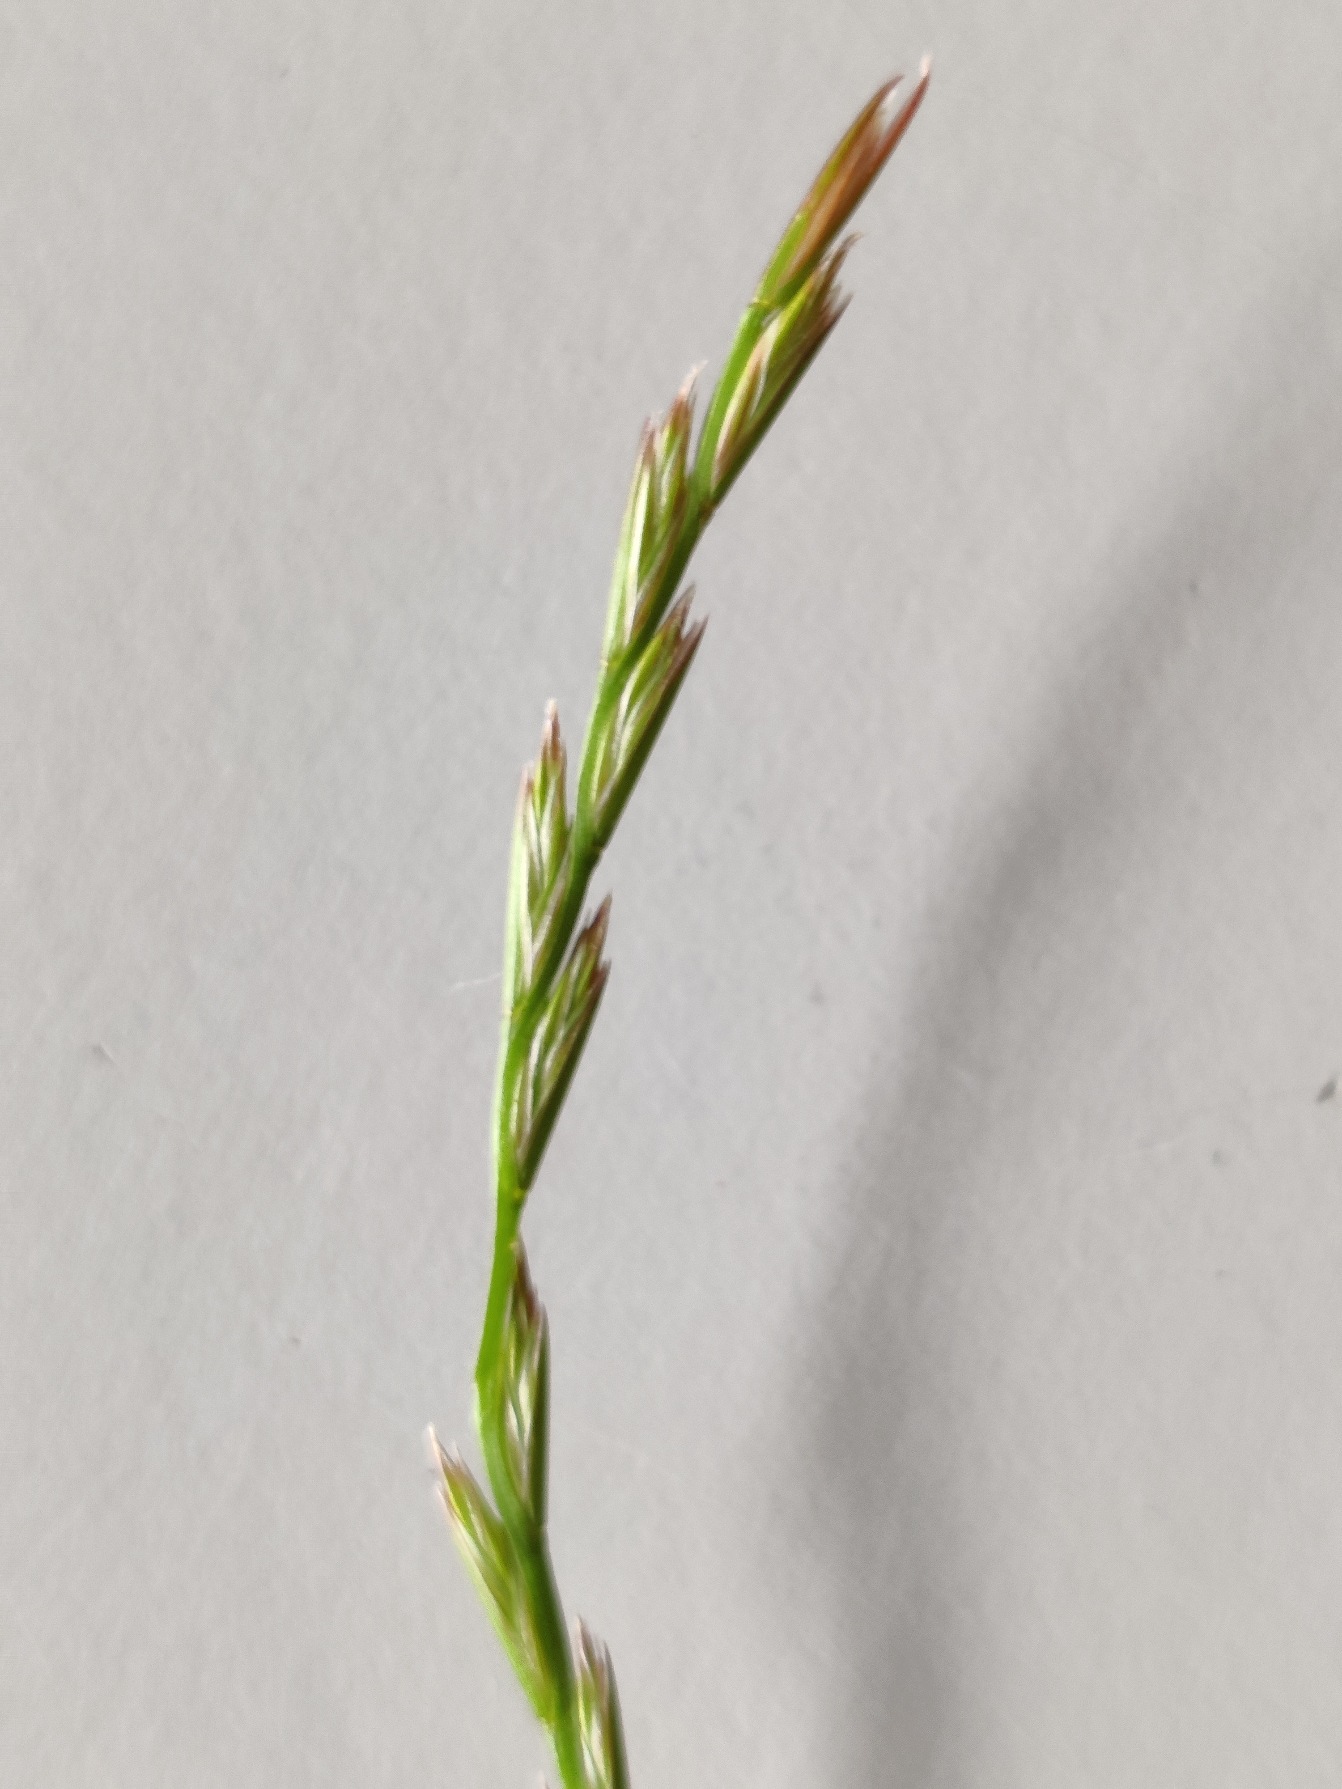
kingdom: Plantae
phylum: Tracheophyta
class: Liliopsida
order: Poales
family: Poaceae
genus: Lolium
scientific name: Lolium perenne
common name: Almindelig rajgræs
